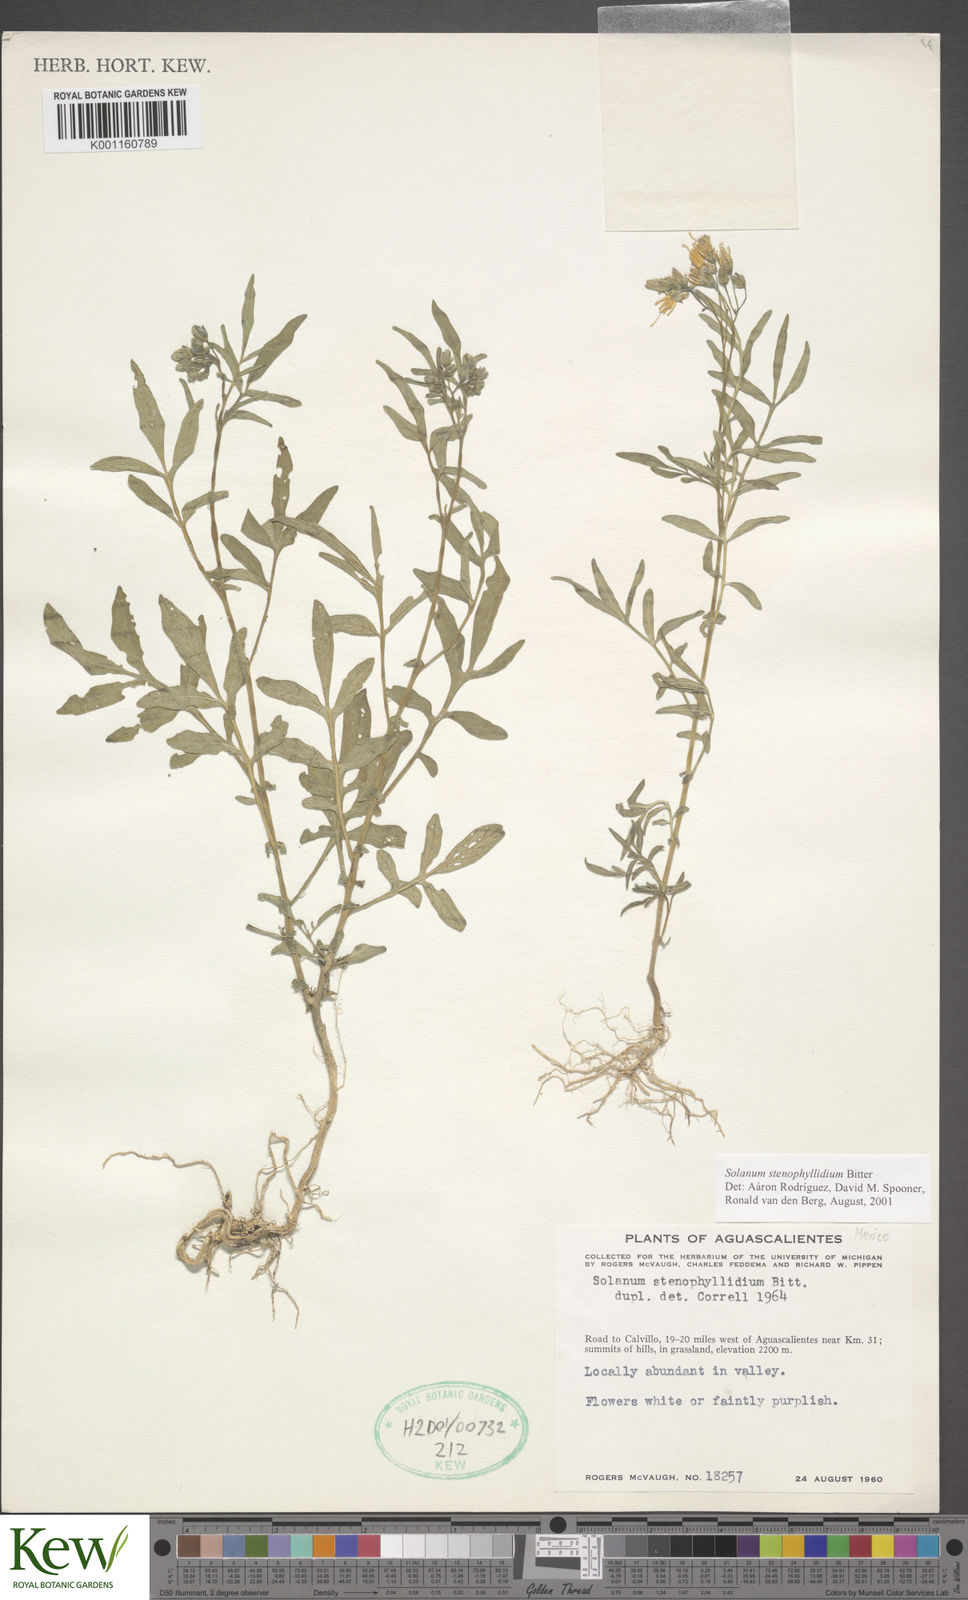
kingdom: Plantae
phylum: Tracheophyta
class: Magnoliopsida
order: Solanales
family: Solanaceae
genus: Solanum
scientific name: Solanum stenophyllidium
